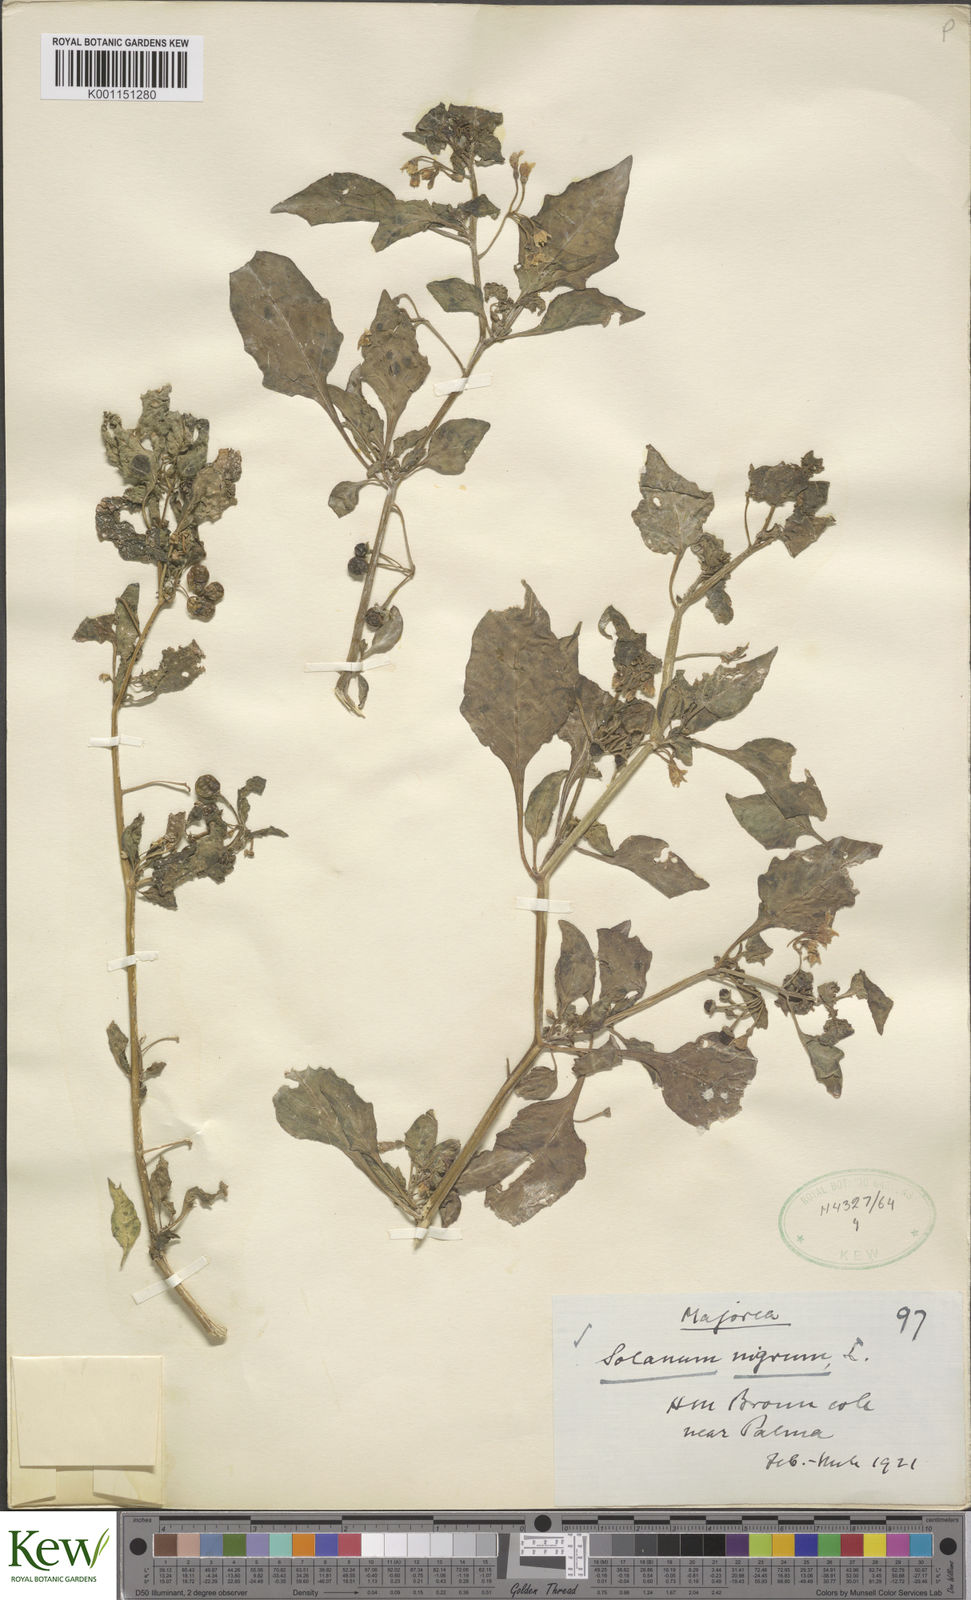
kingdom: Plantae
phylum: Tracheophyta
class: Magnoliopsida
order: Solanales
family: Solanaceae
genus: Solanum
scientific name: Solanum nigrum
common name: Black nightshade
